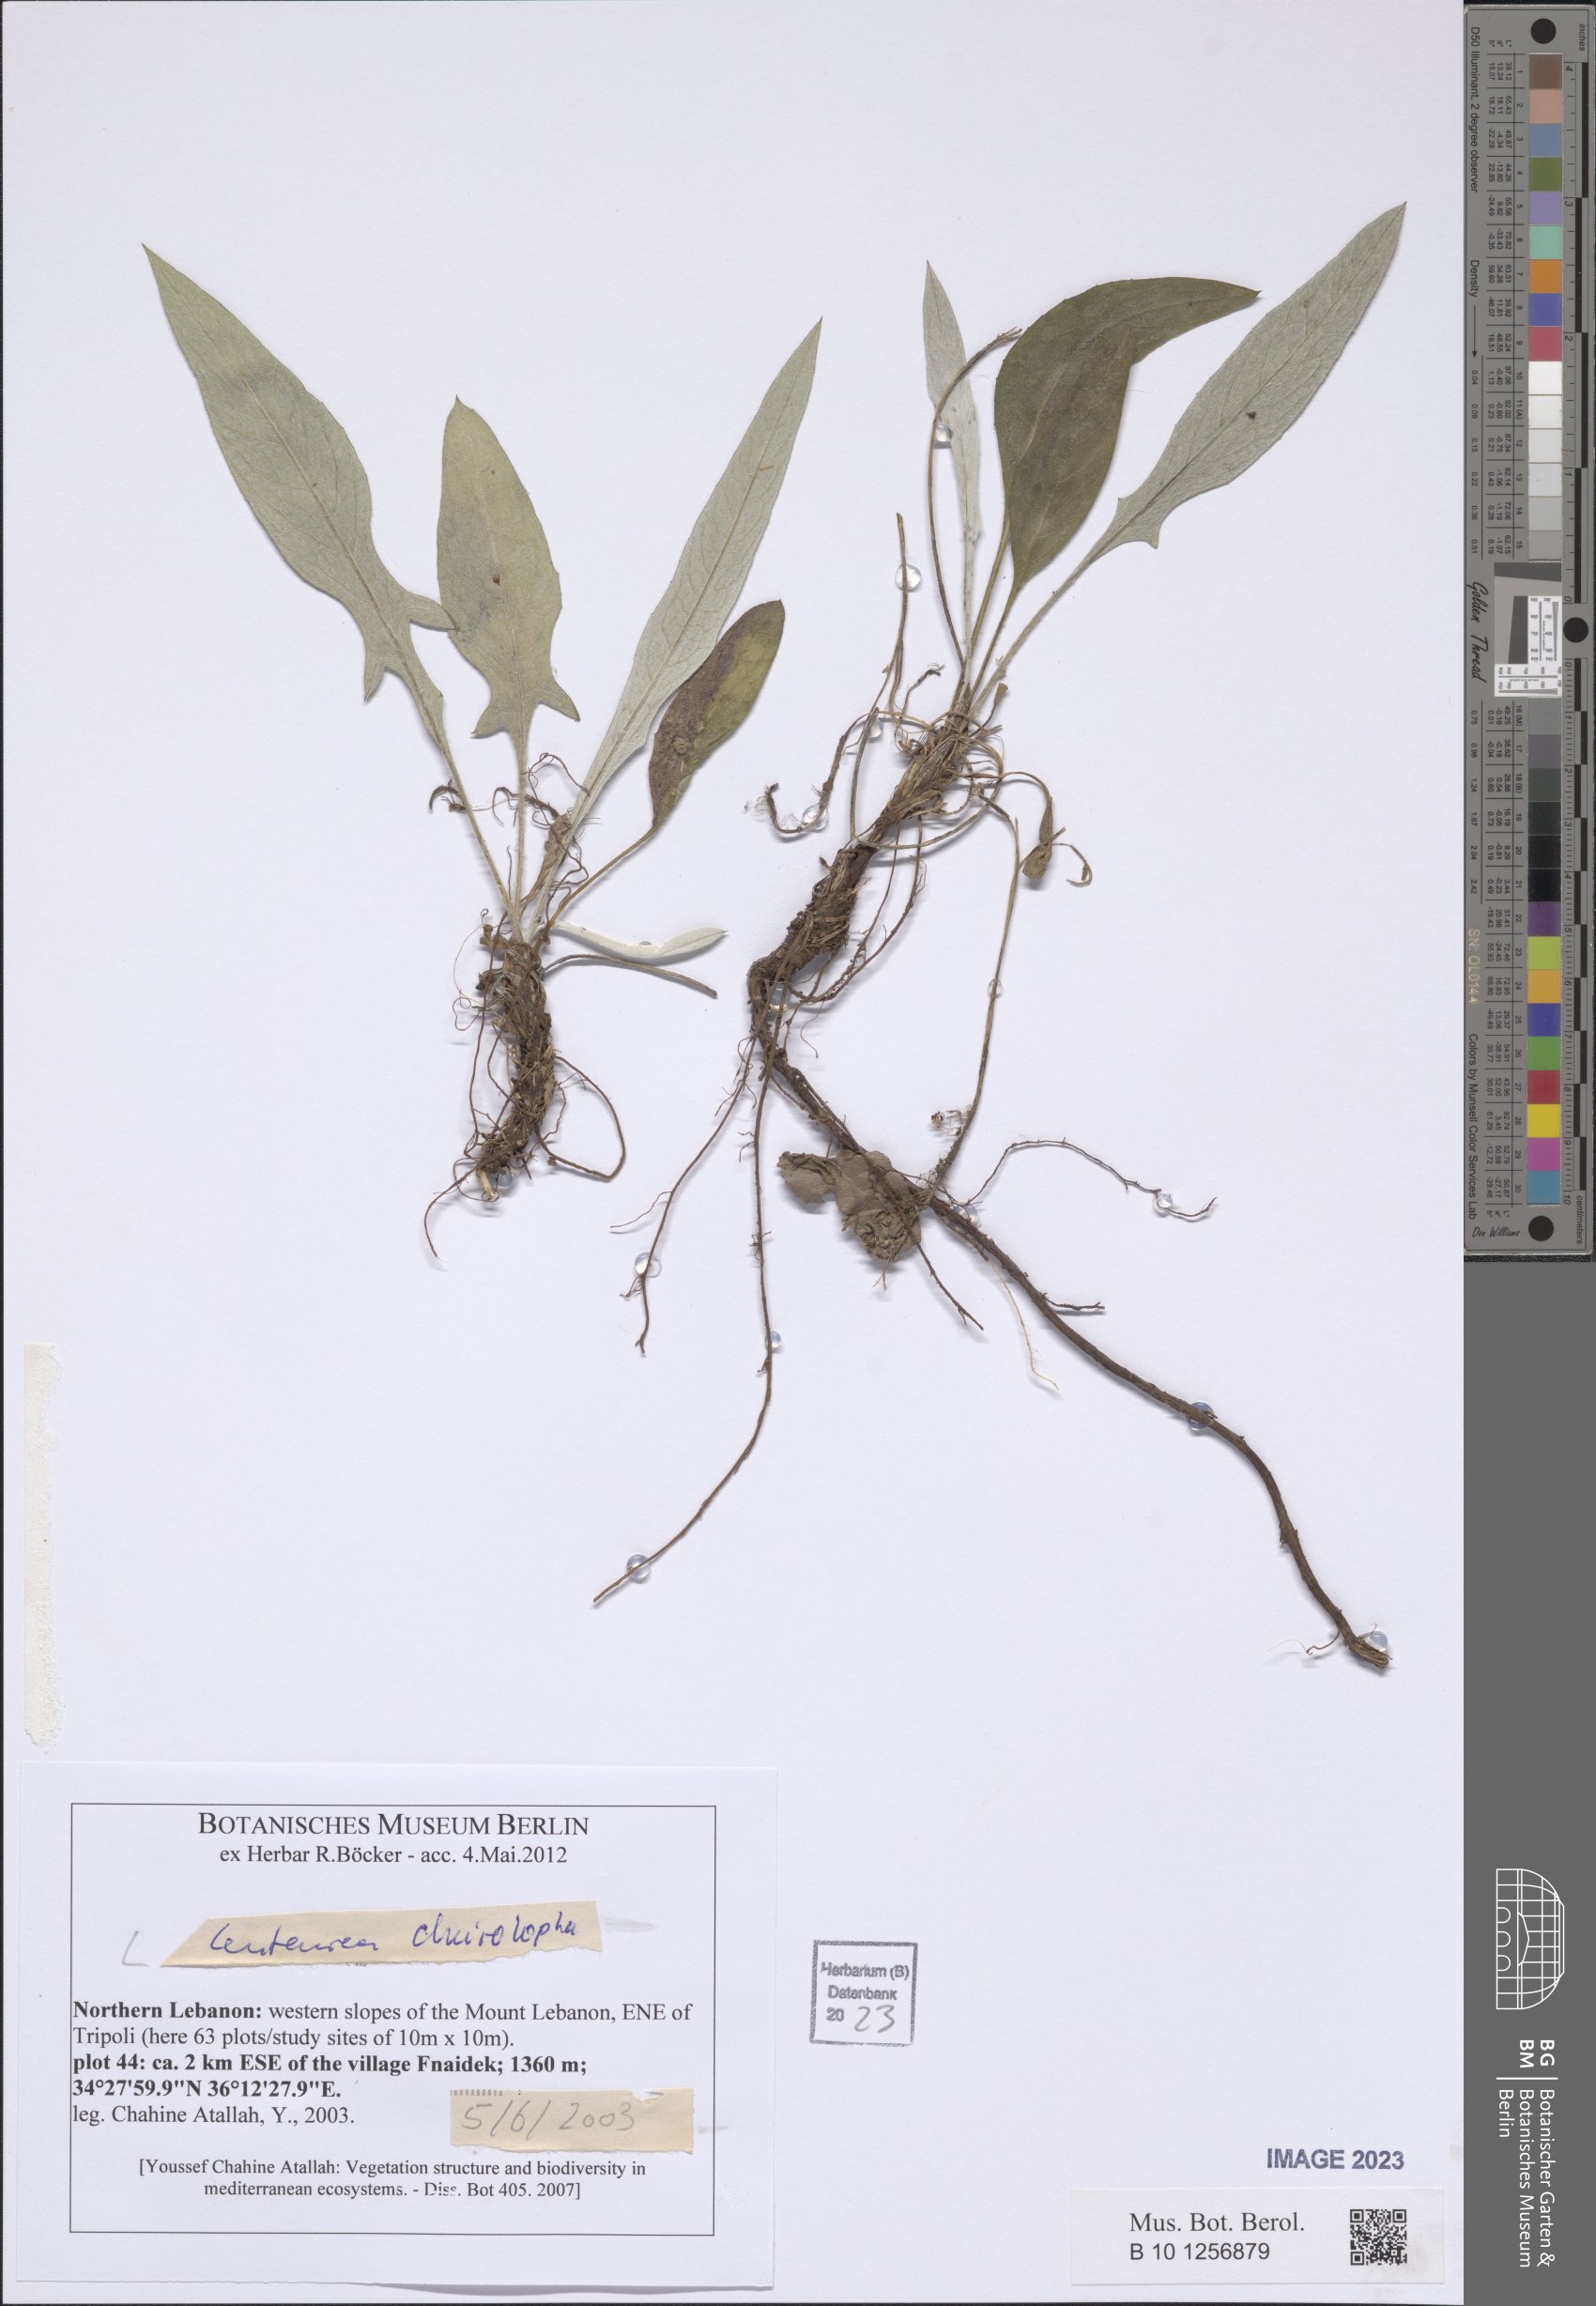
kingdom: Plantae
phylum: Tracheophyta
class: Magnoliopsida
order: Asterales
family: Asteraceae
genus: Centaurea
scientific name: Centaurea cheirolopha
